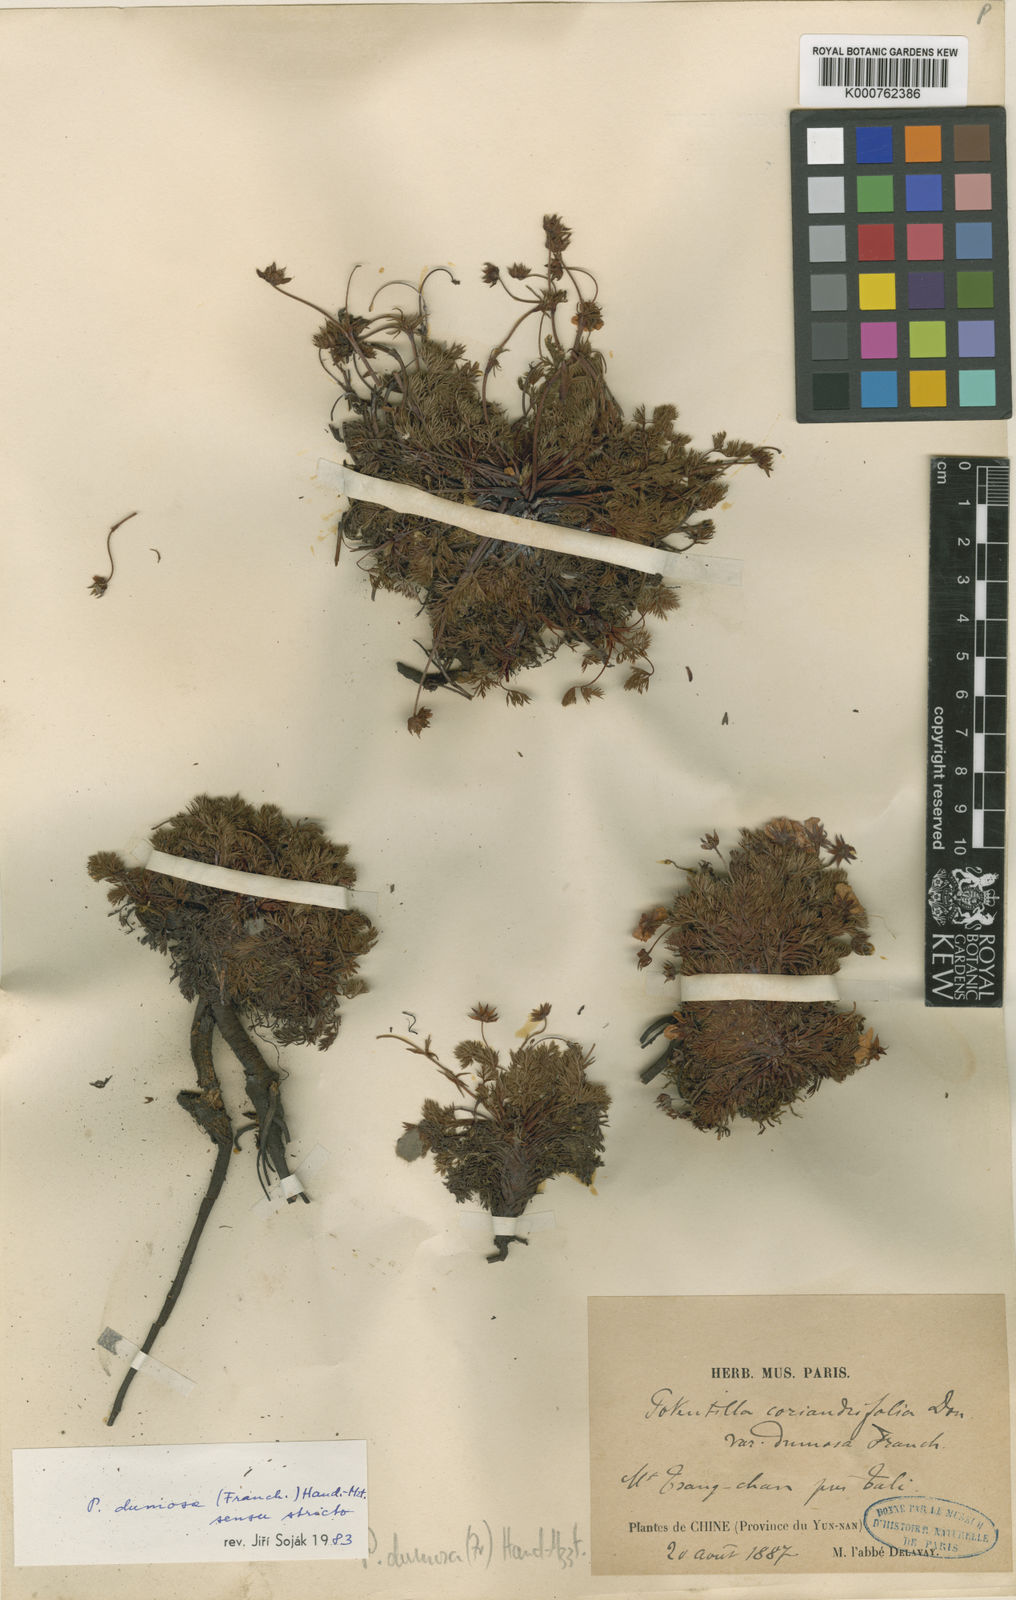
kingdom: Plantae
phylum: Tracheophyta
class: Magnoliopsida
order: Rosales
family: Rosaceae
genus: Potentilla
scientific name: Potentilla coriandrifolia
